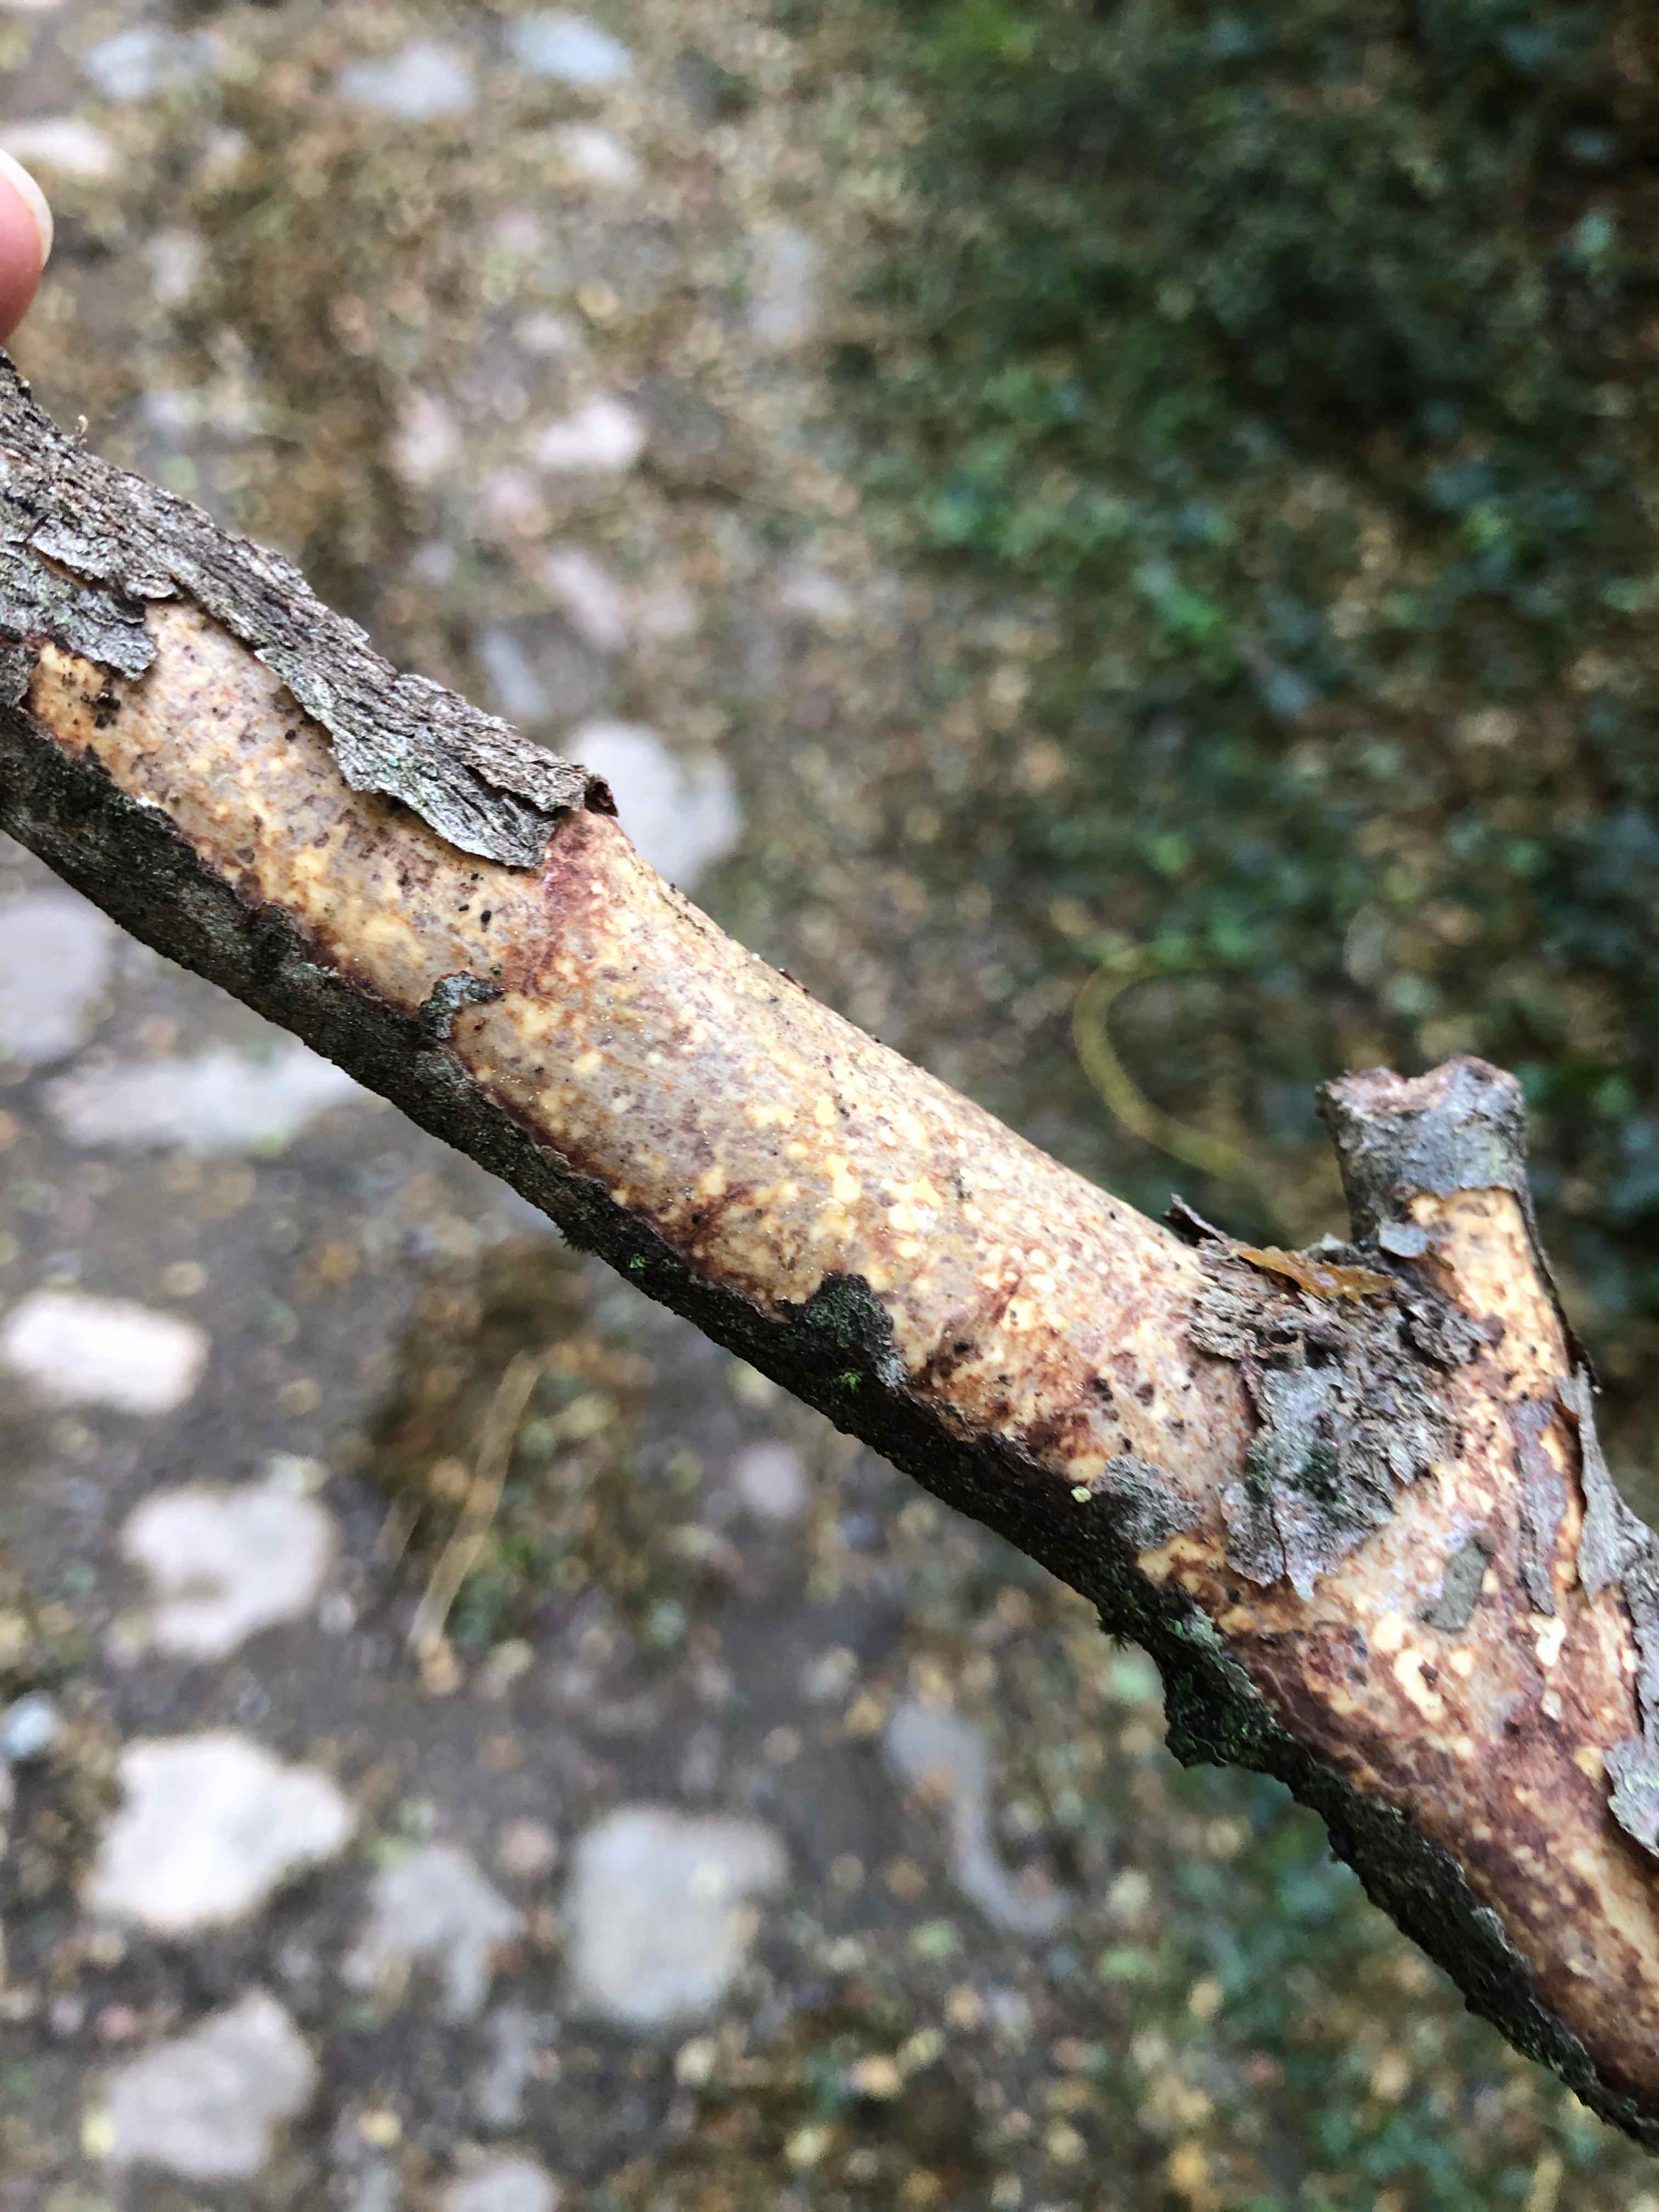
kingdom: Fungi
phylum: Basidiomycota
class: Agaricomycetes
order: Corticiales
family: Vuilleminiaceae
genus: Vuilleminia
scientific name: Vuilleminia comedens
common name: almindelig barksprænger
